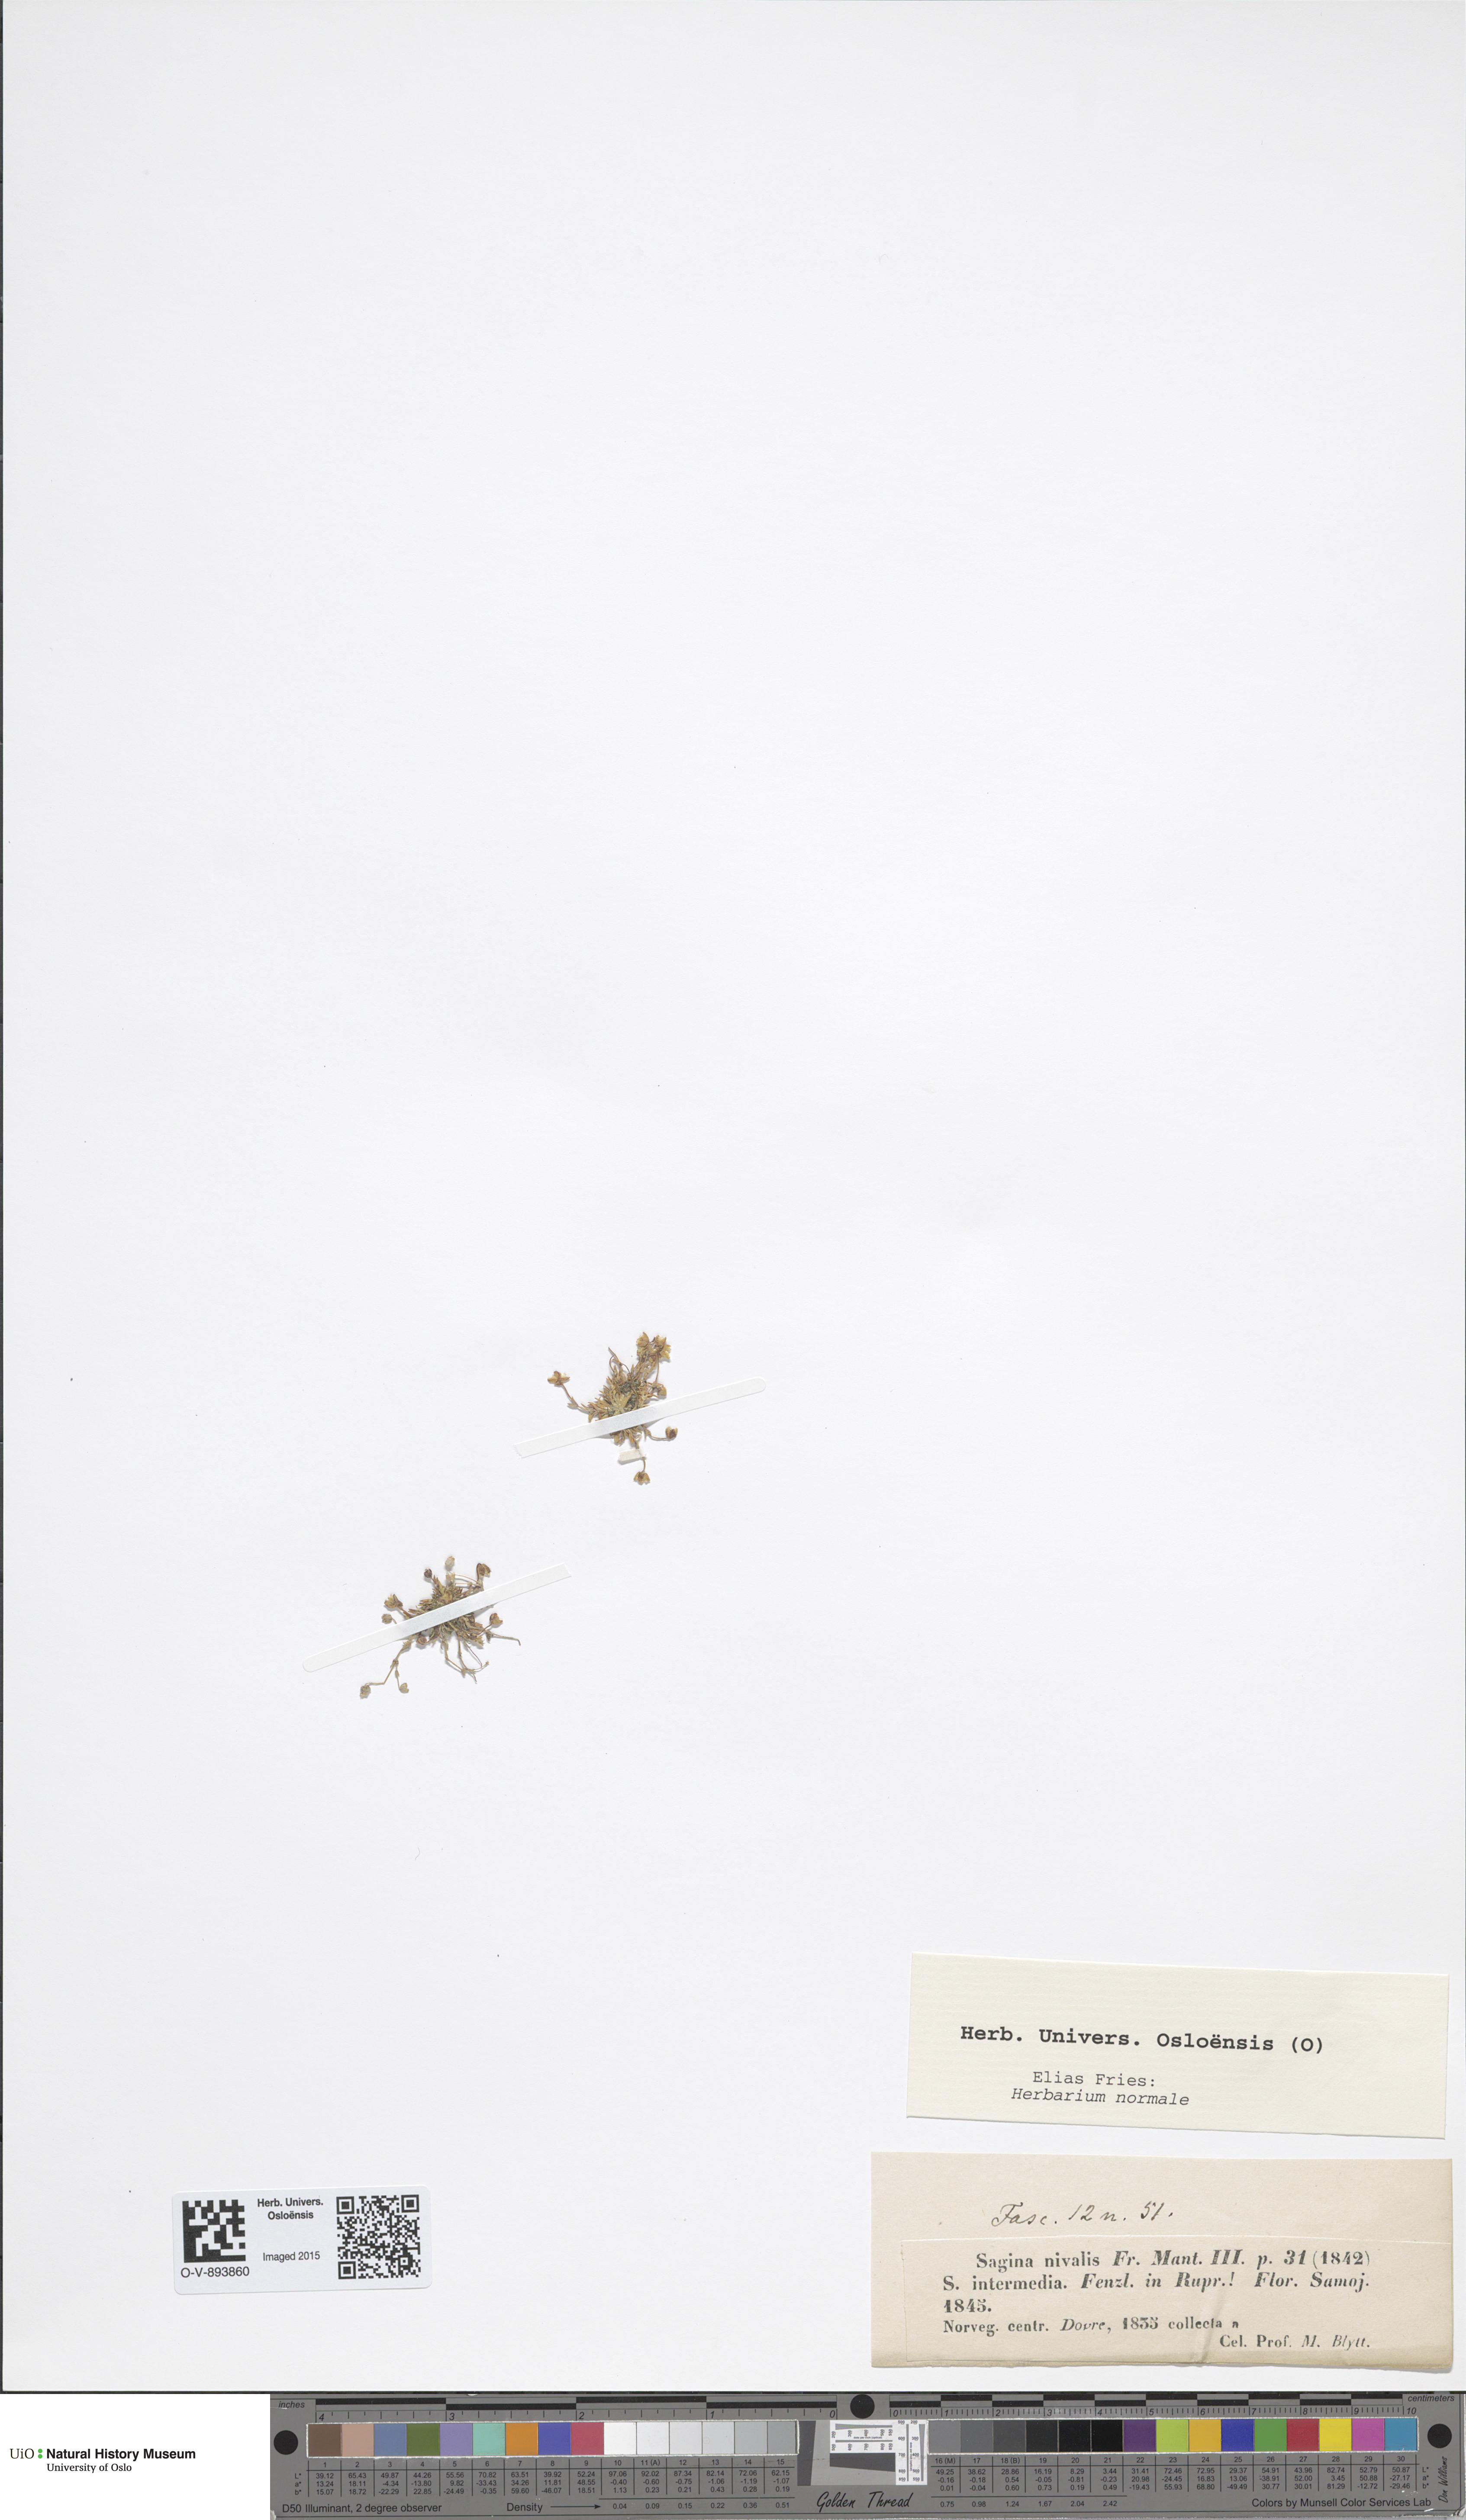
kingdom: Plantae
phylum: Tracheophyta
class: Magnoliopsida
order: Caryophyllales
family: Caryophyllaceae
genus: Sagina
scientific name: Sagina nivalis
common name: Snow pearlwort
